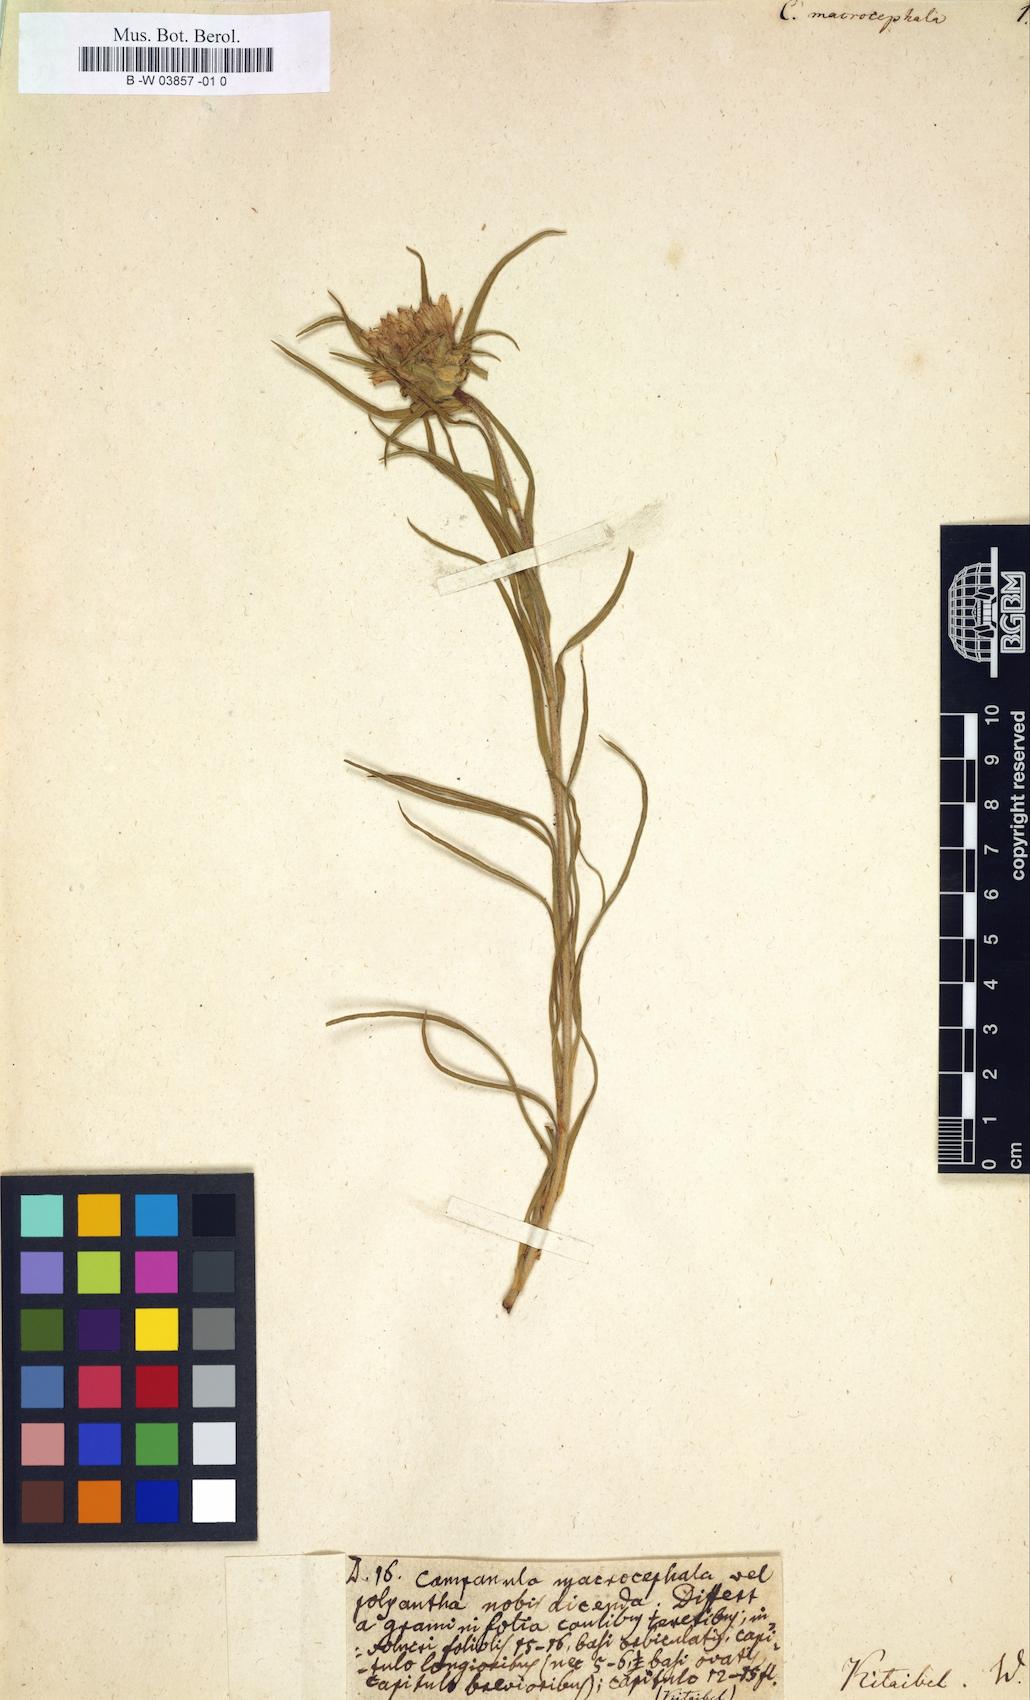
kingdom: Plantae
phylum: Tracheophyta
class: Magnoliopsida
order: Asterales
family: Campanulaceae
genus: Edraianthus
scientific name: Edraianthus tenuifolius
